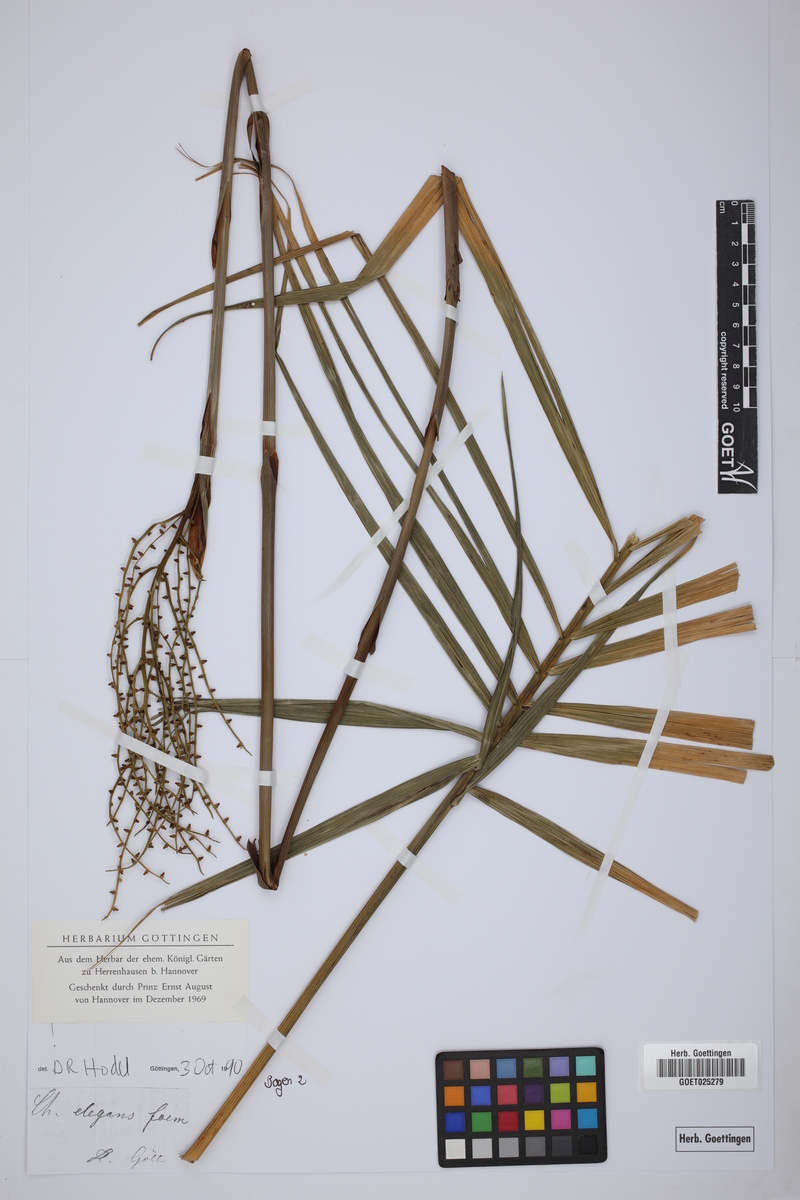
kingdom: Plantae
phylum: Tracheophyta
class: Liliopsida
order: Arecales
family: Arecaceae
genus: Chamaedorea
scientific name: Chamaedorea elegans
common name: Good-luck palm
